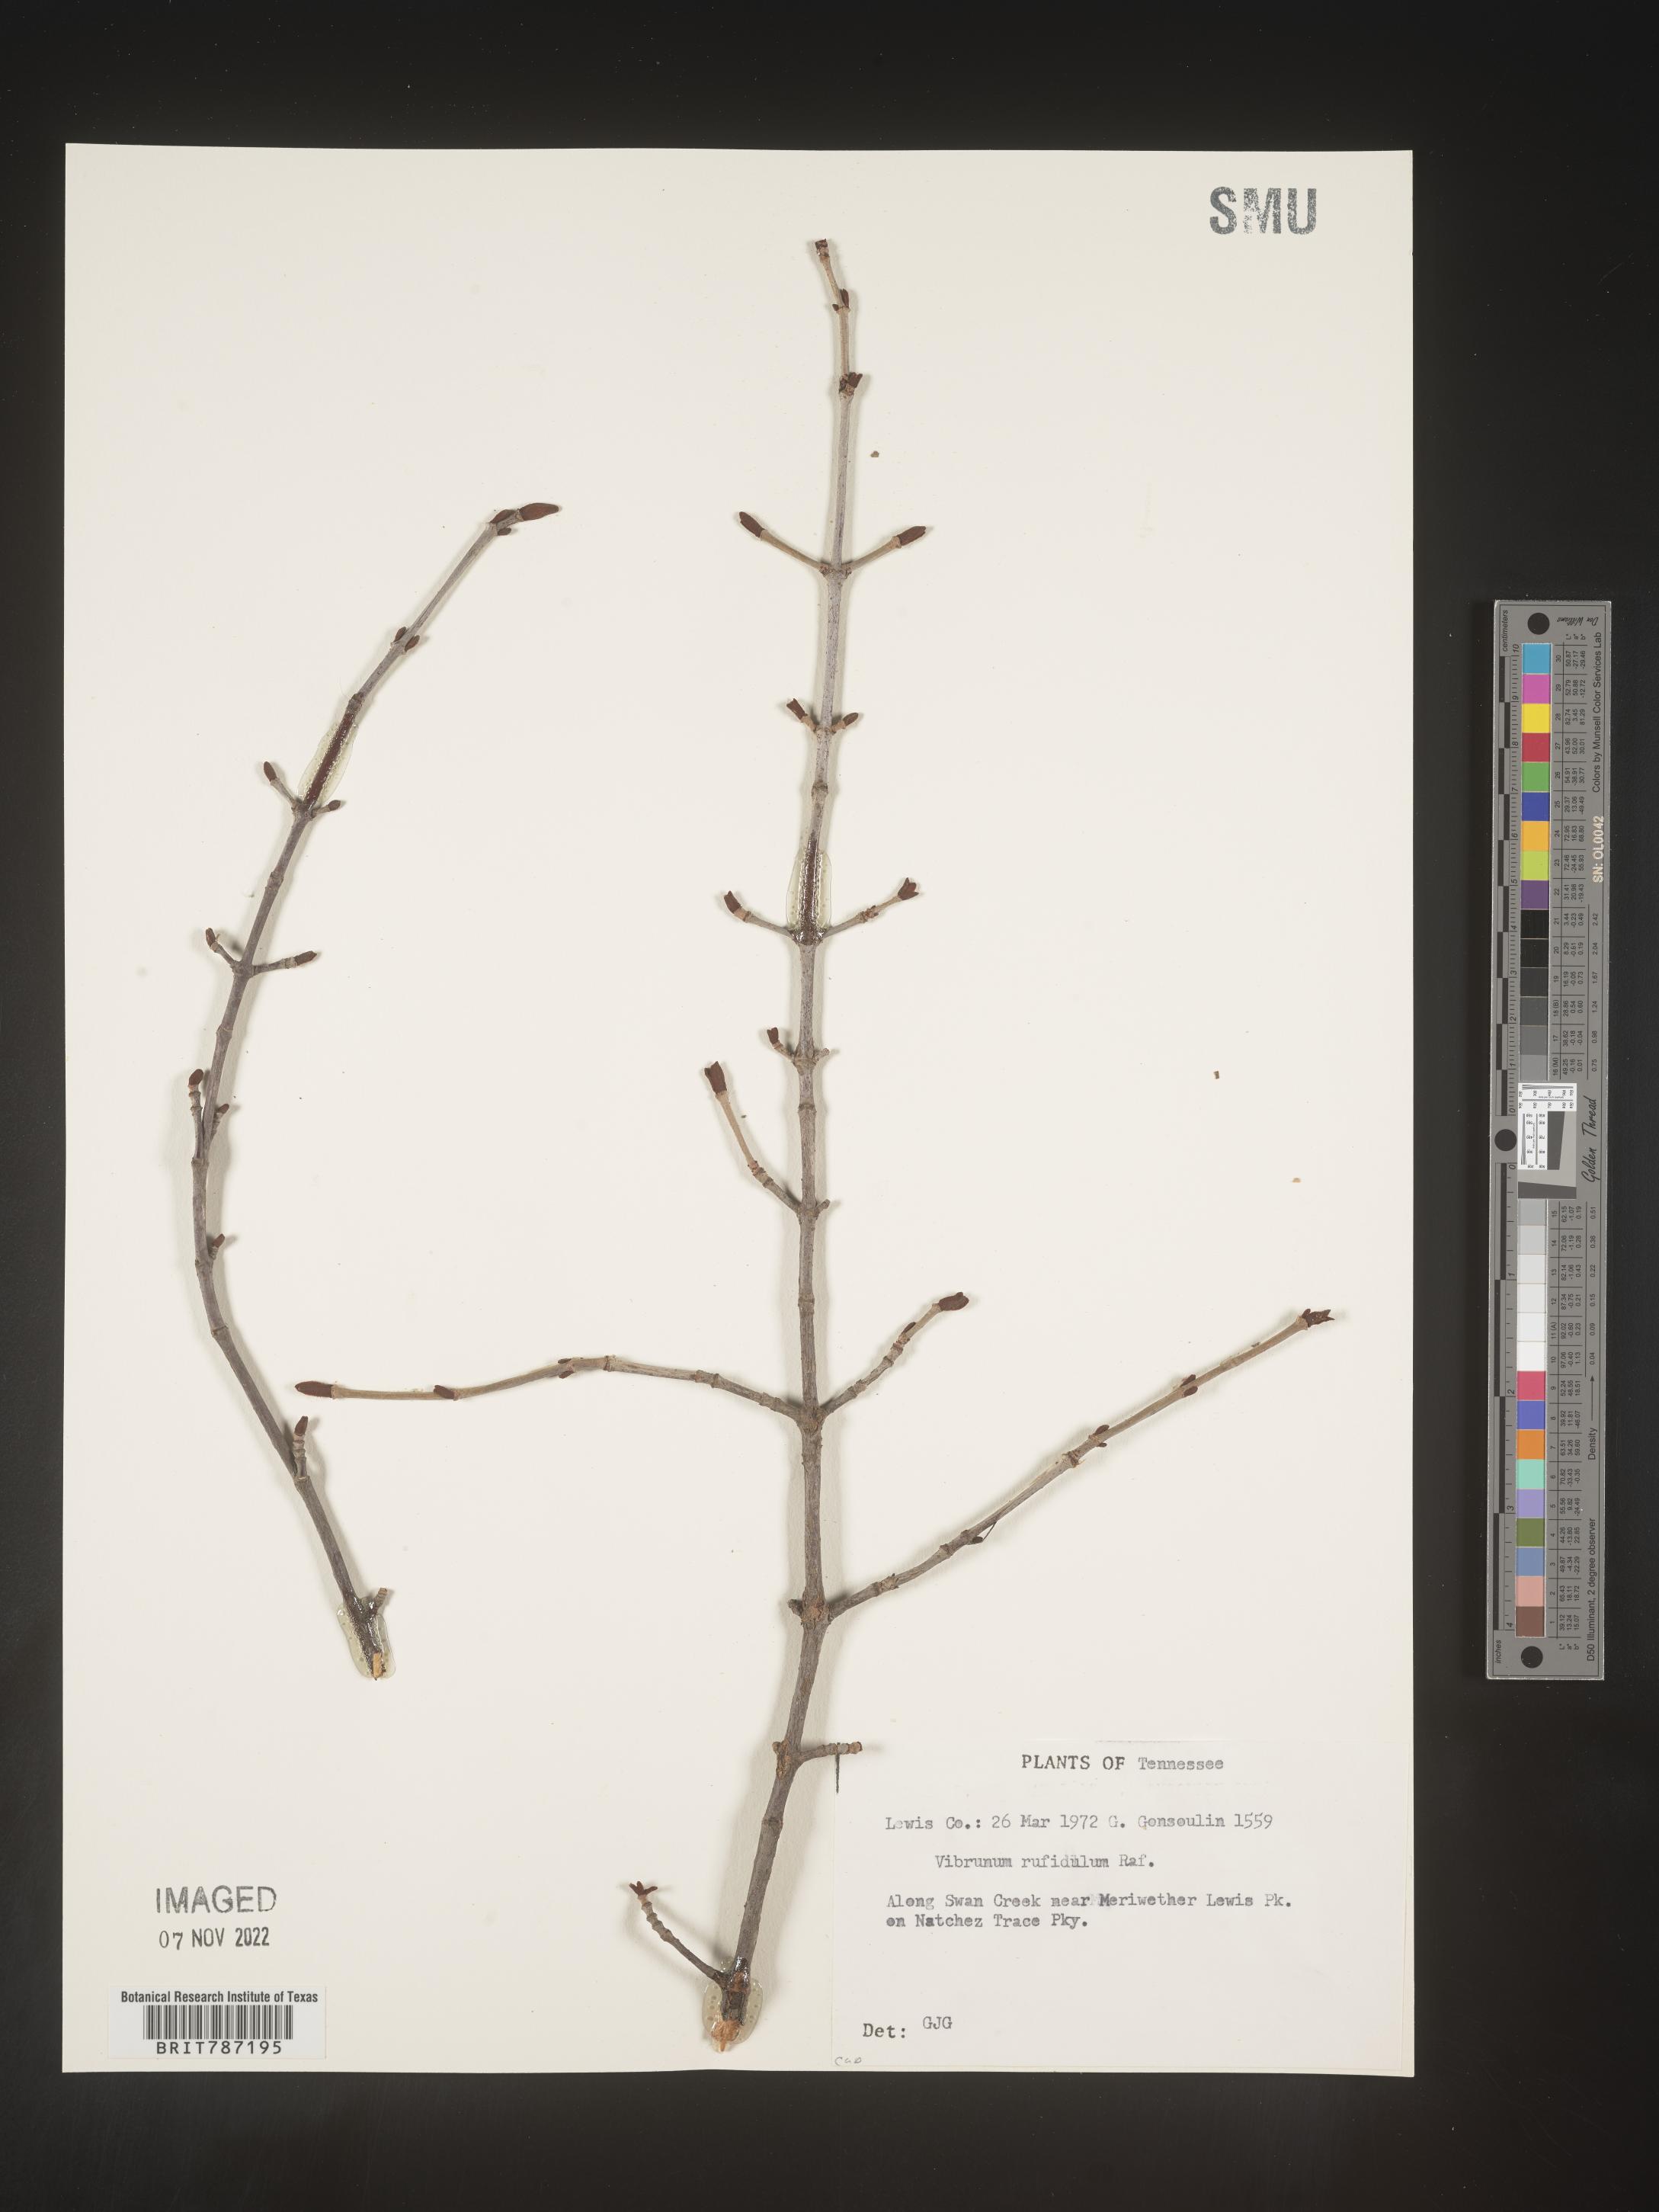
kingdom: Plantae
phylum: Tracheophyta
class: Magnoliopsida
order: Dipsacales
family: Viburnaceae
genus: Viburnum
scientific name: Viburnum rufidulum
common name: Blue haw
